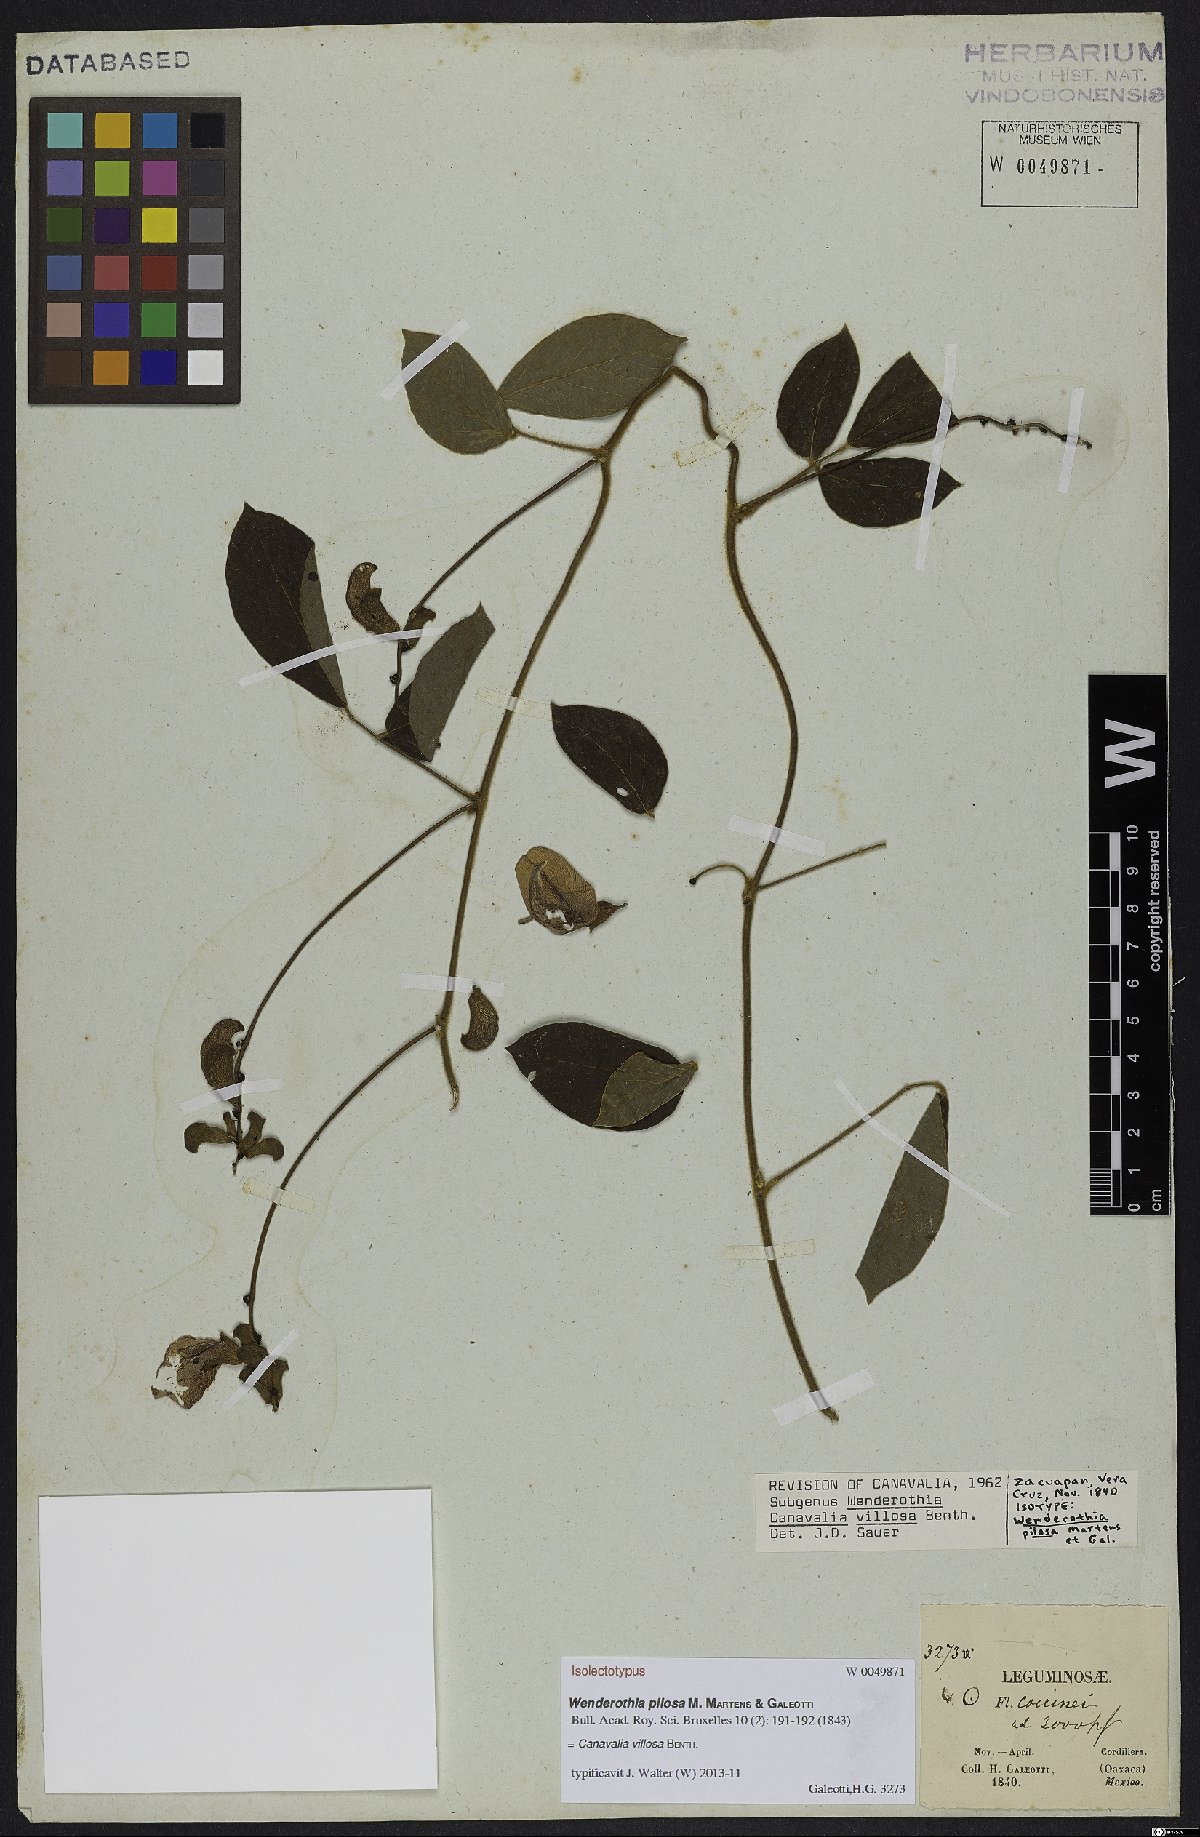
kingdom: Plantae
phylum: Tracheophyta
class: Magnoliopsida
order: Fabales
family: Fabaceae
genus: Canavalia
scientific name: Canavalia villosa
